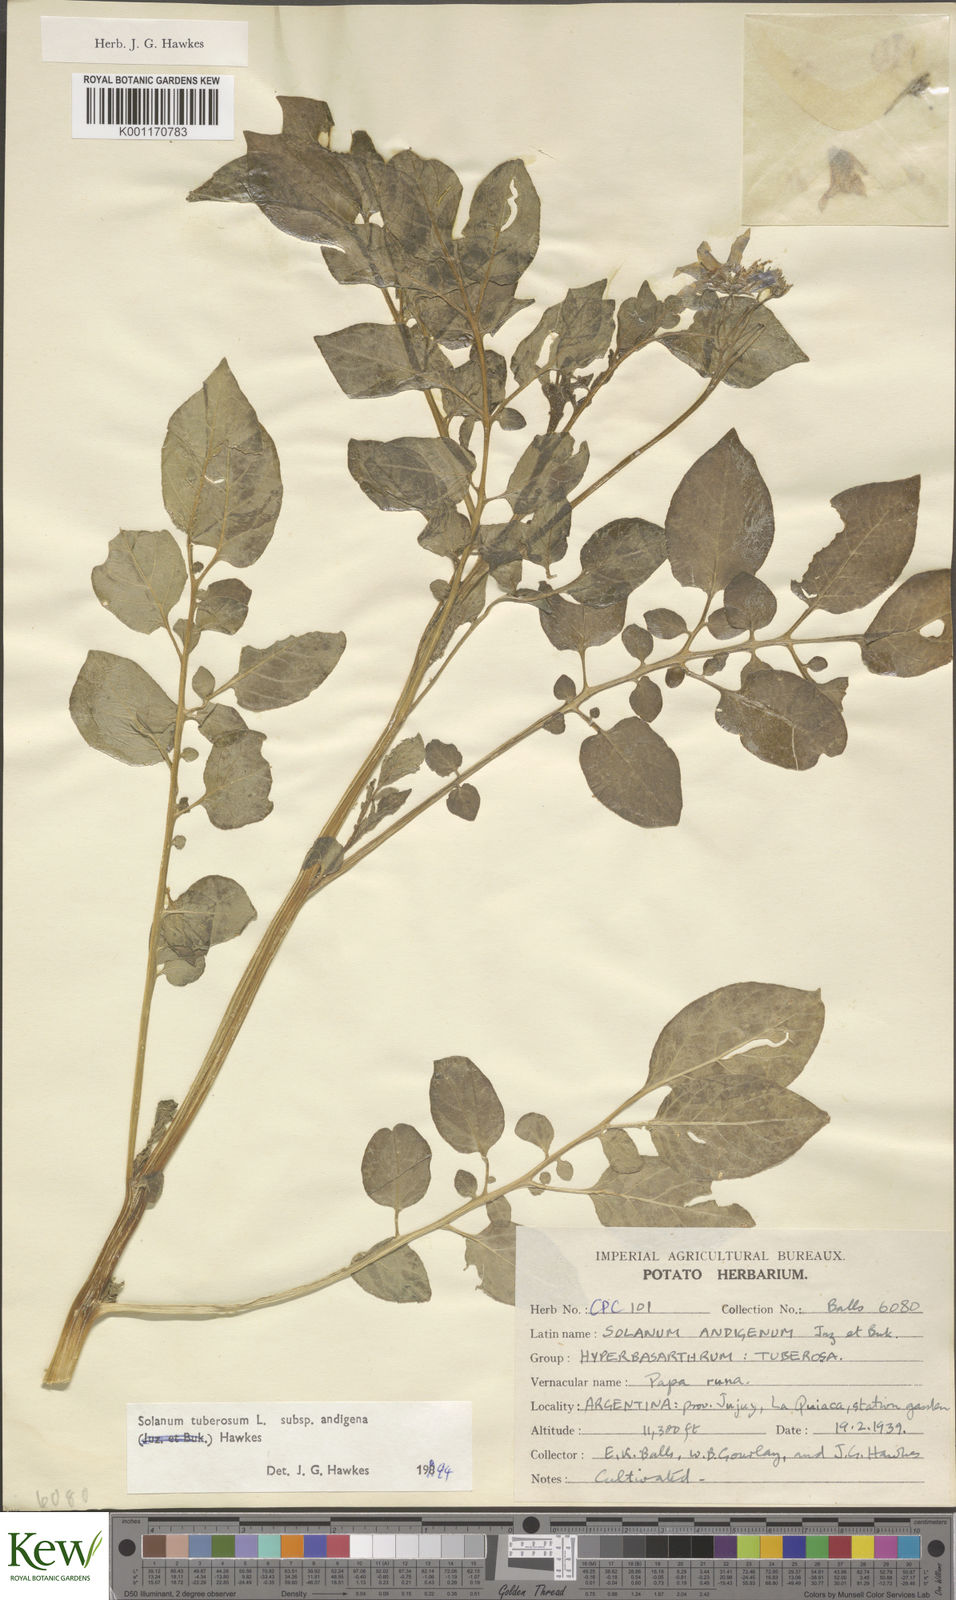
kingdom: Plantae
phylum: Tracheophyta
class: Magnoliopsida
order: Solanales
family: Solanaceae
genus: Solanum
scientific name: Solanum tuberosum
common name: Potato
